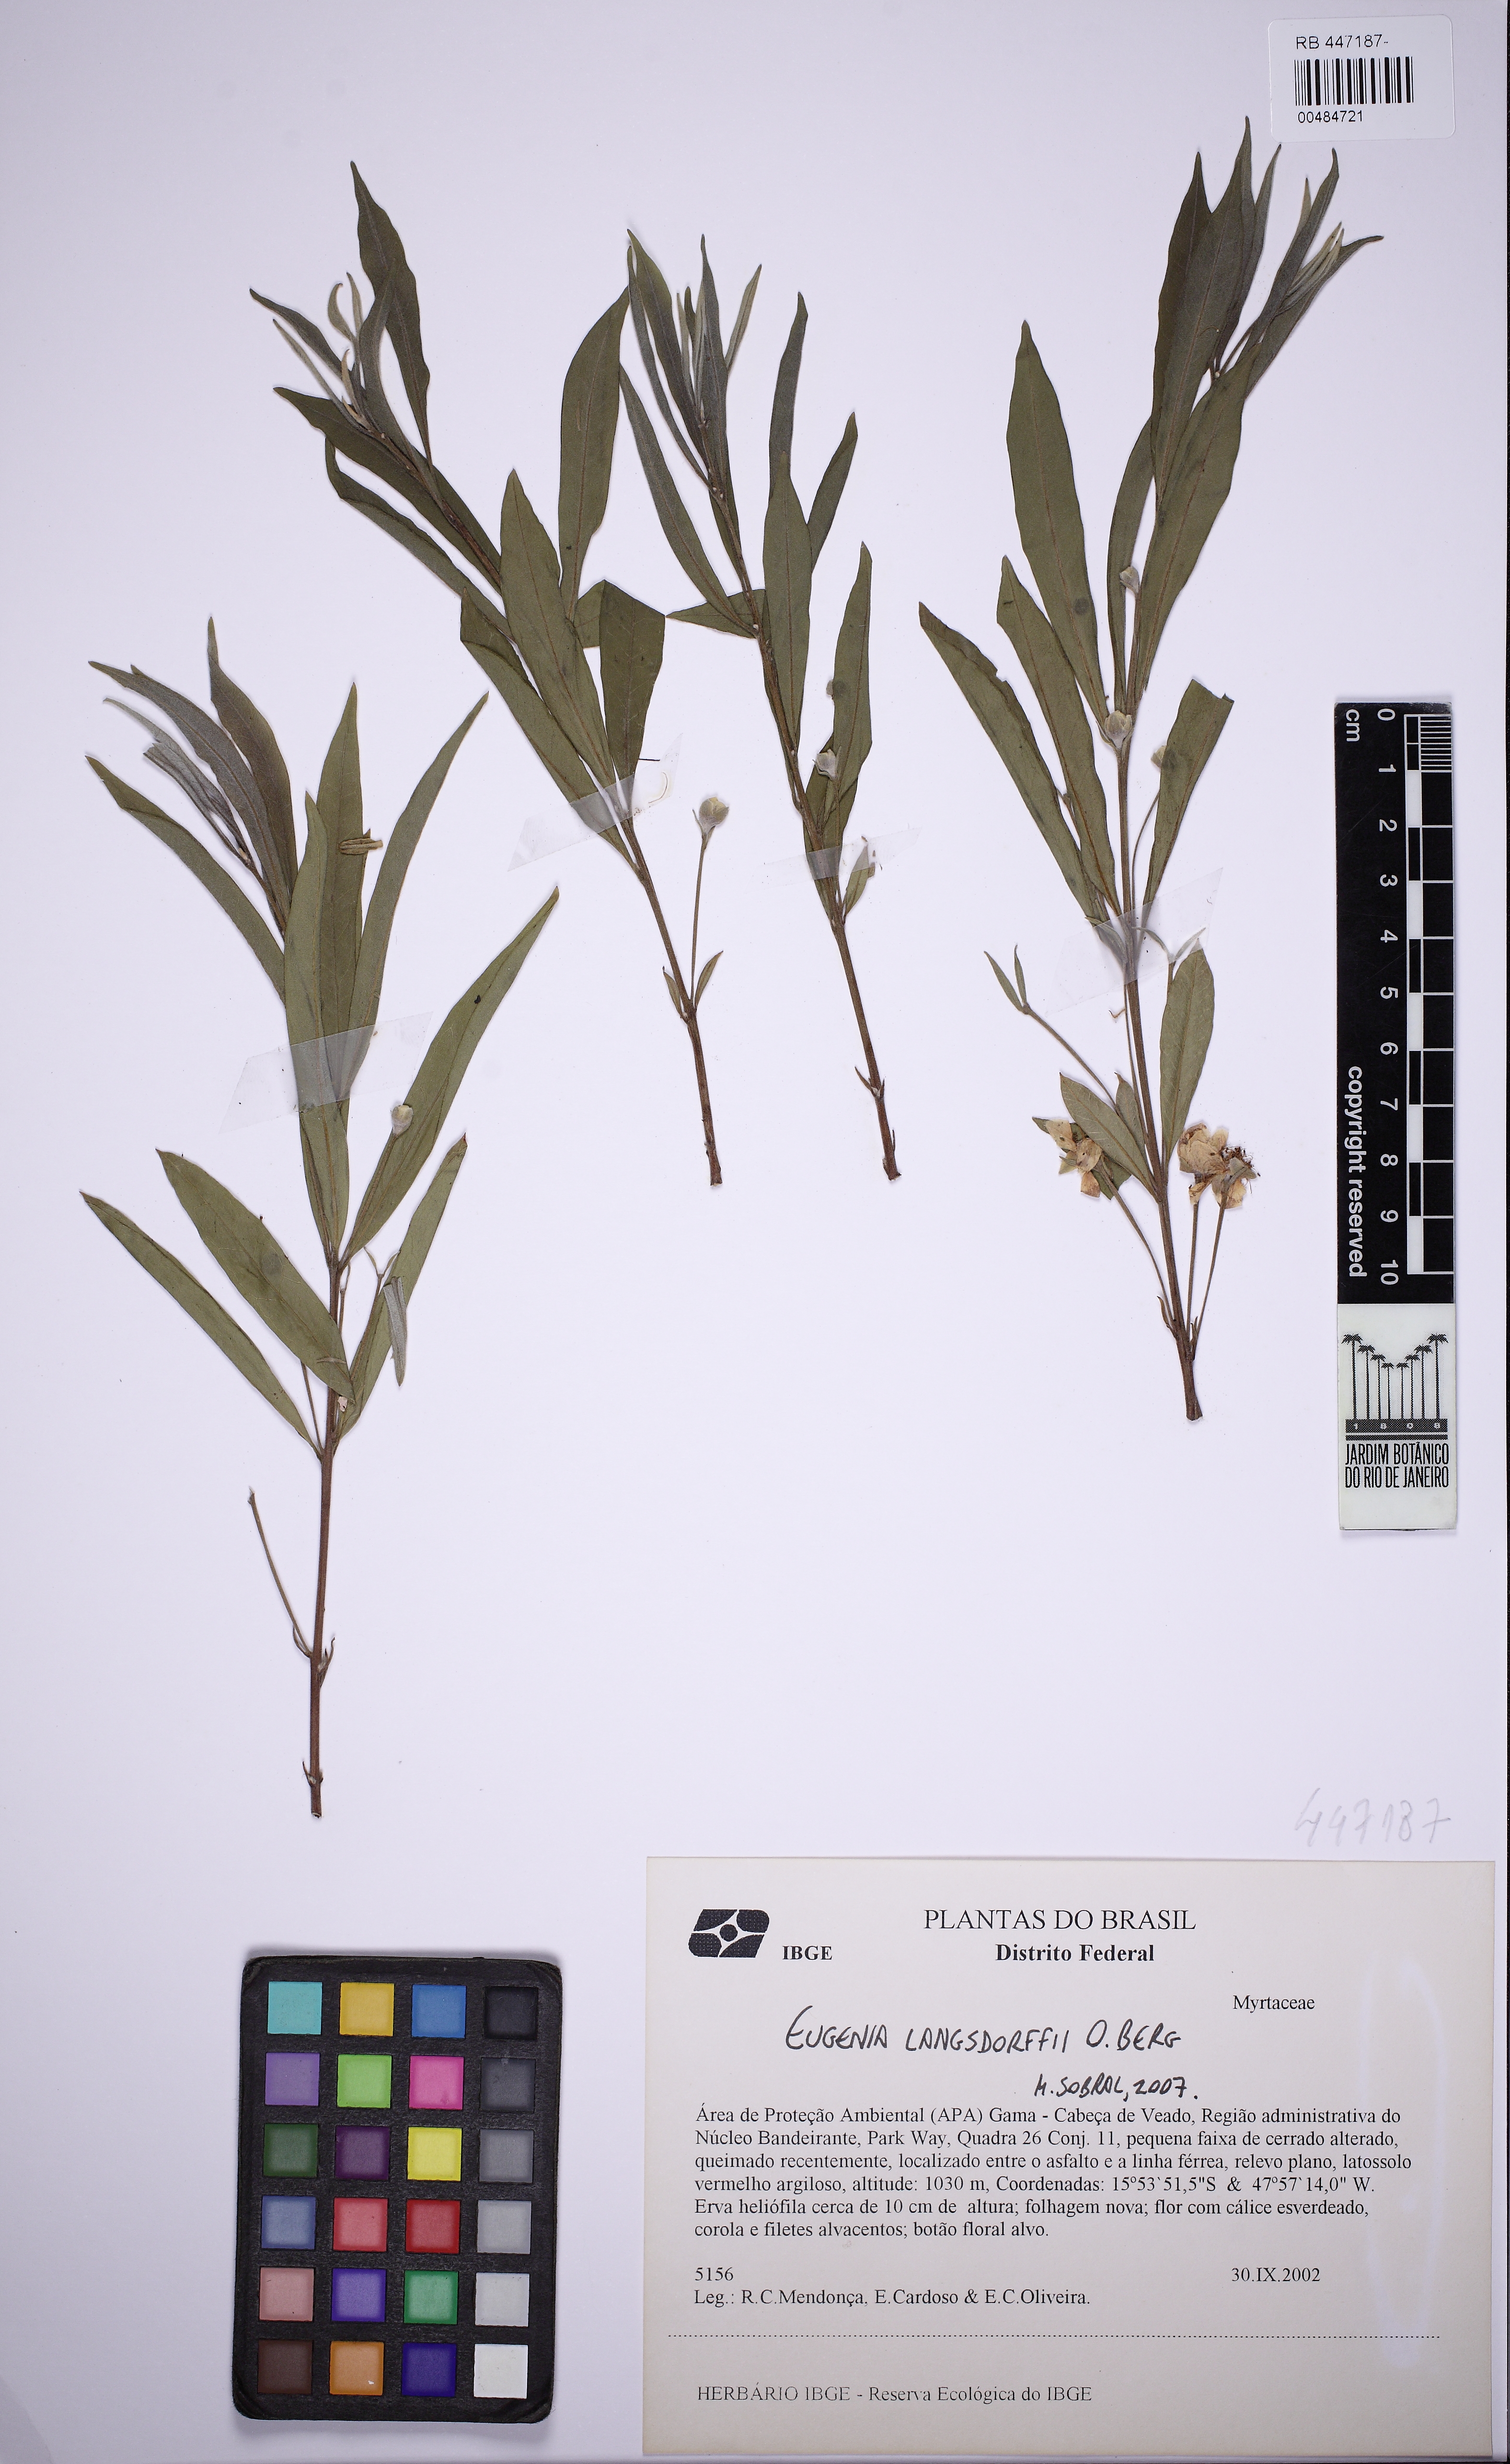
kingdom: Plantae
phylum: Tracheophyta
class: Magnoliopsida
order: Myrtales
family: Myrtaceae
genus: Eugenia
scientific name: Eugenia langsdorffii
